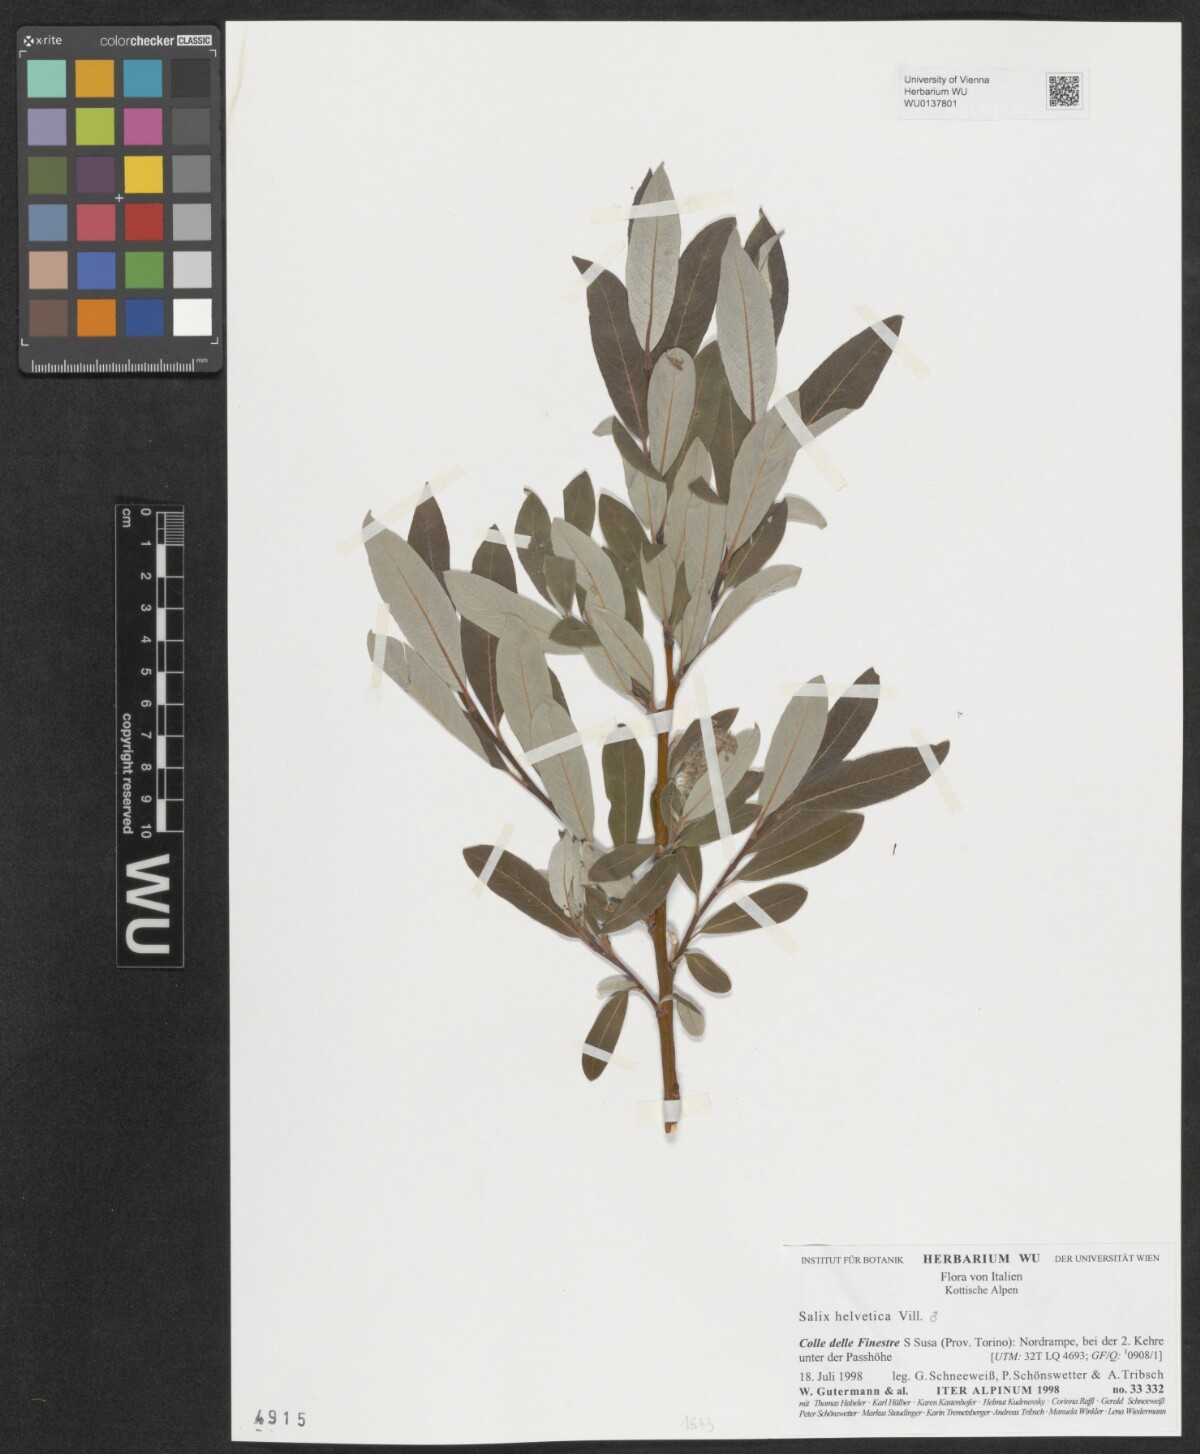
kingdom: Plantae
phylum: Tracheophyta
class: Magnoliopsida
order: Malpighiales
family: Salicaceae
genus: Salix
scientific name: Salix helvetica
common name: Swiss willow
